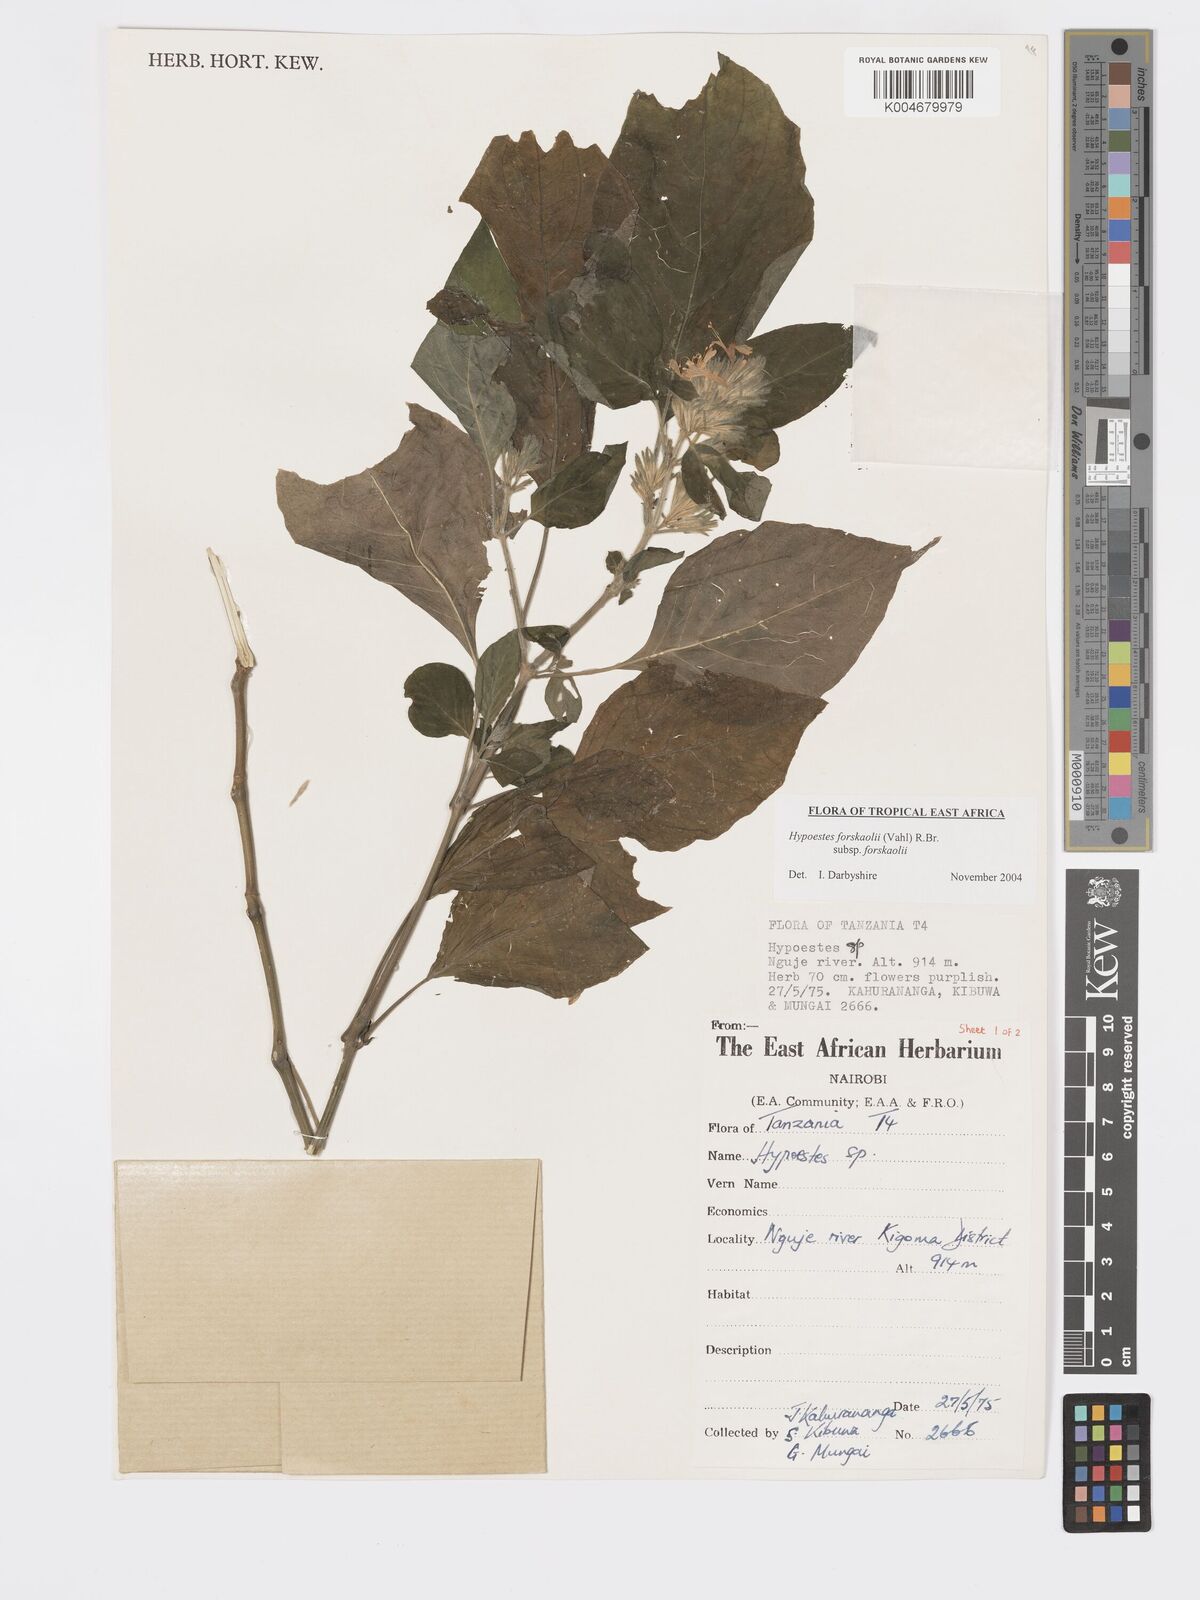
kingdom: Plantae
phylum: Tracheophyta
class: Magnoliopsida
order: Lamiales
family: Acanthaceae
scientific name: Acanthaceae
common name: Acanthaceae
